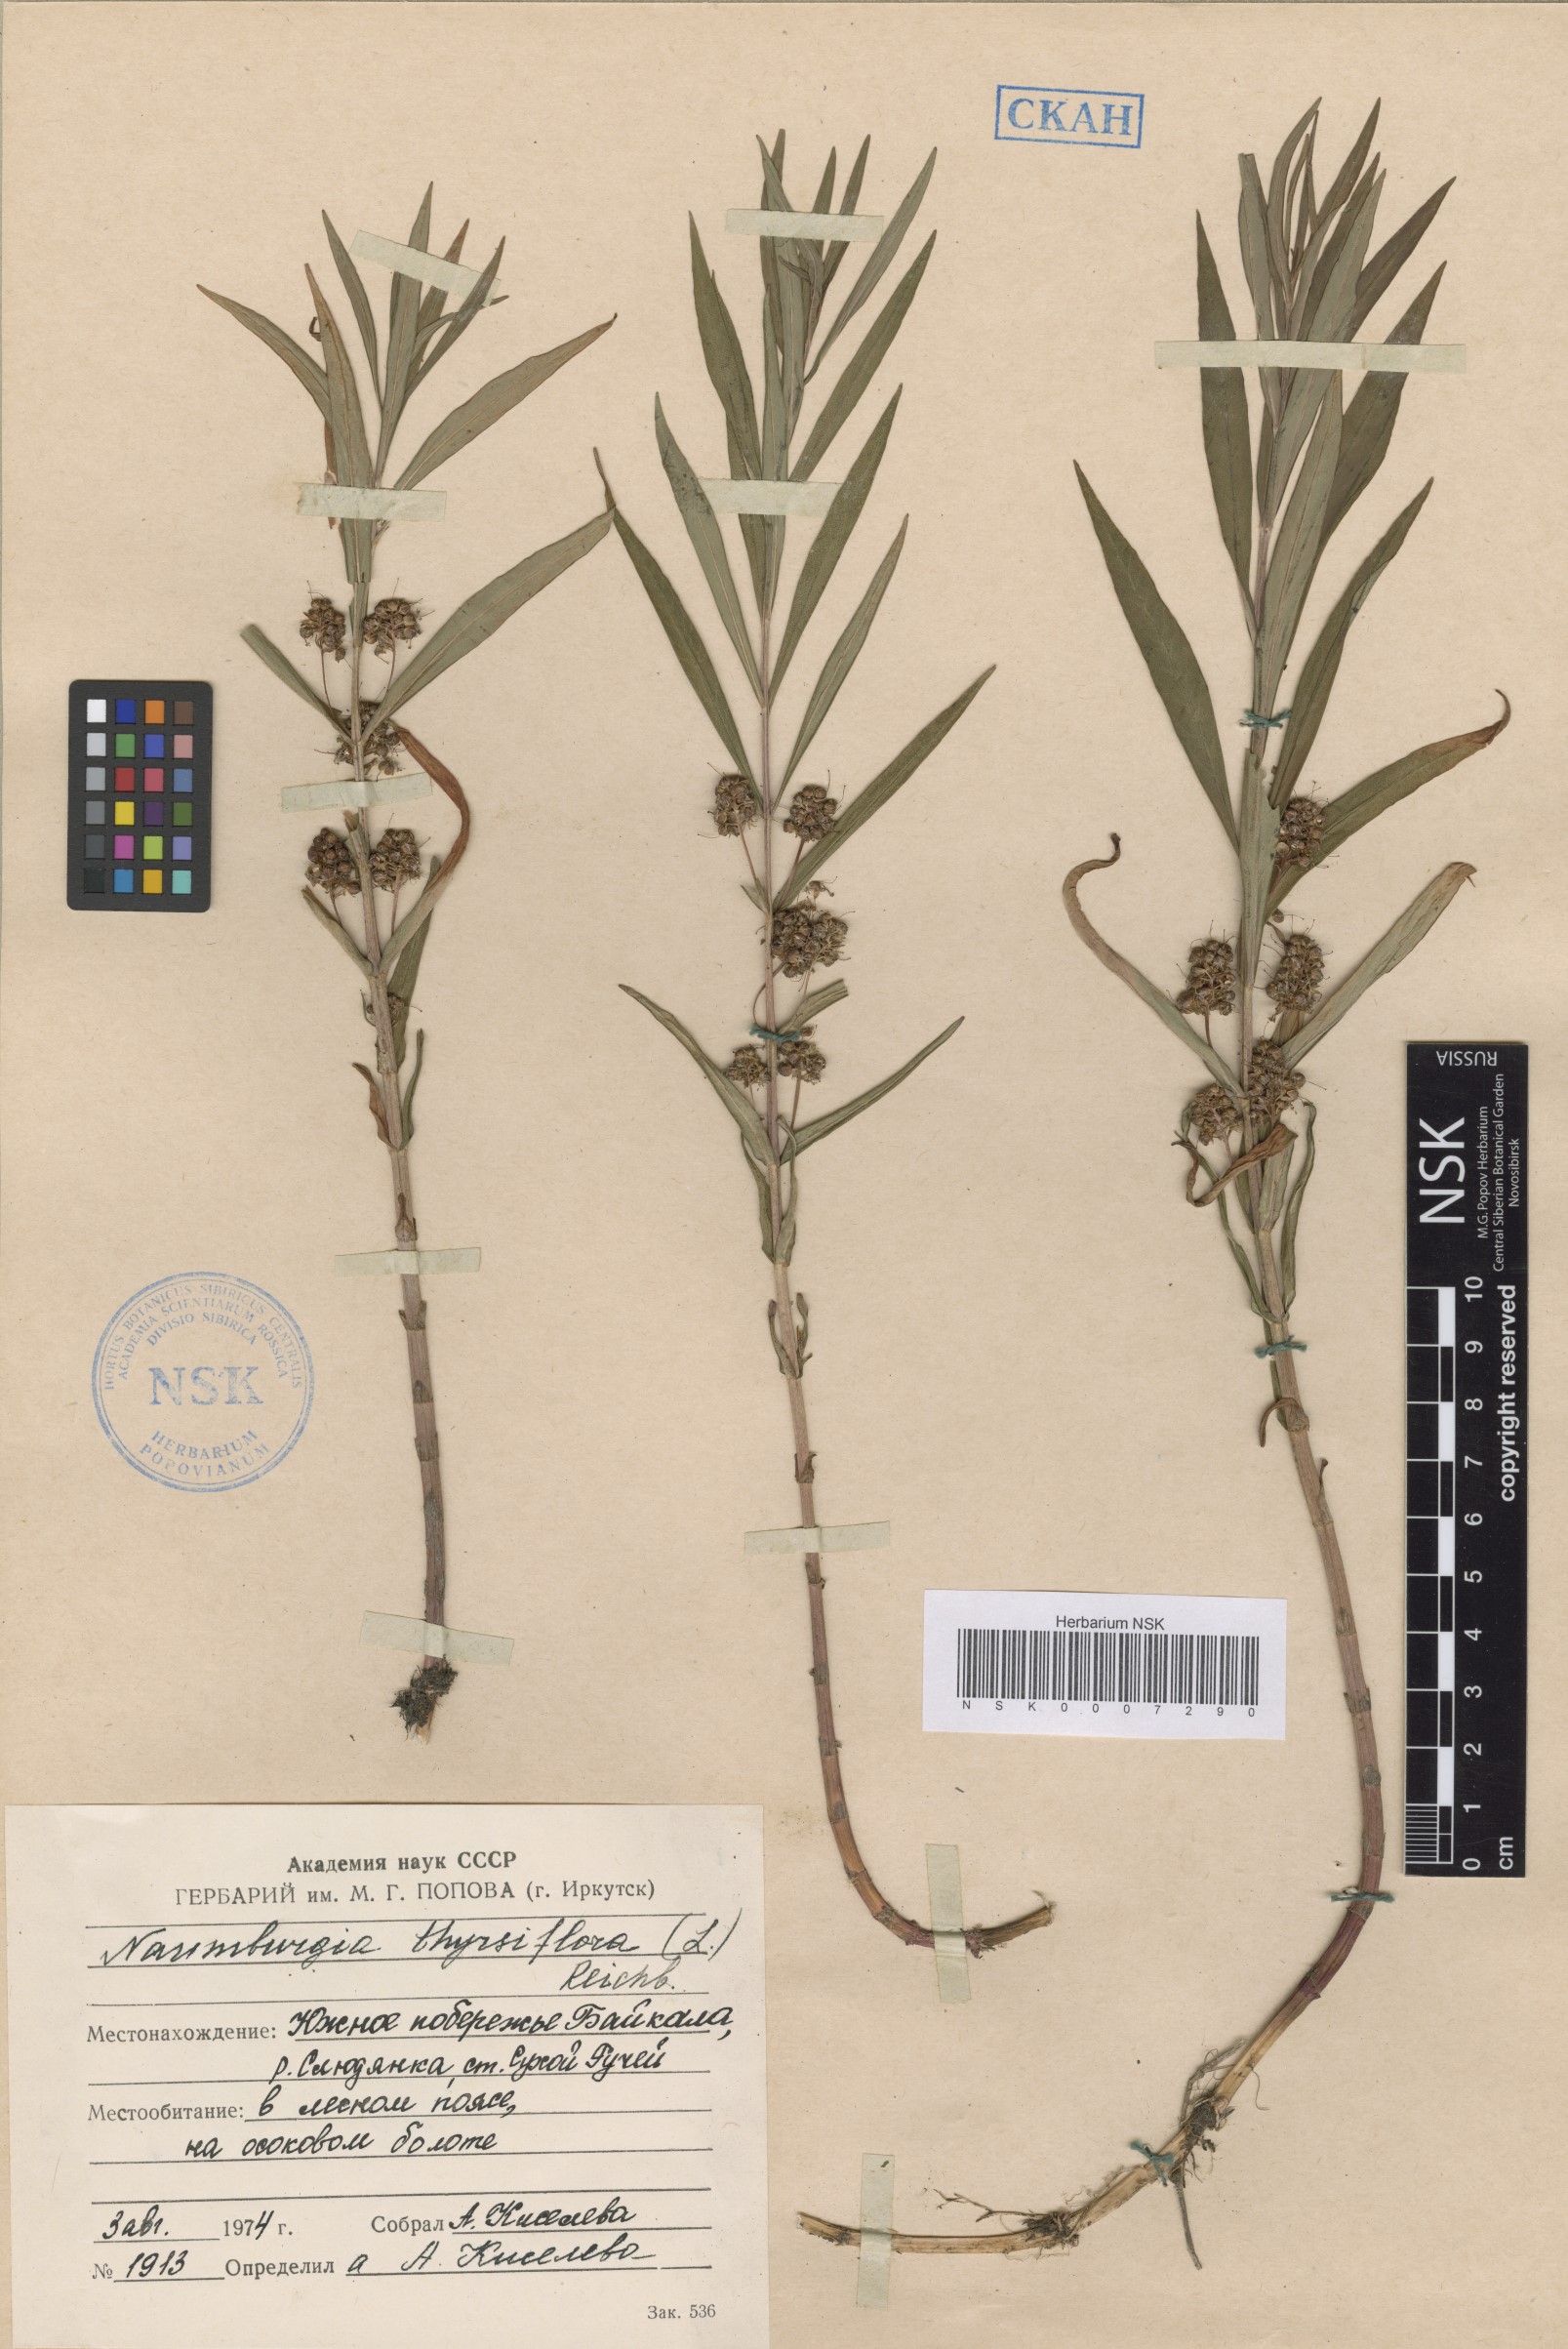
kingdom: Plantae
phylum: Tracheophyta
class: Magnoliopsida
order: Ericales
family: Primulaceae
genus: Lysimachia
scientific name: Lysimachia thyrsiflora
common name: Tufted loosestrife
